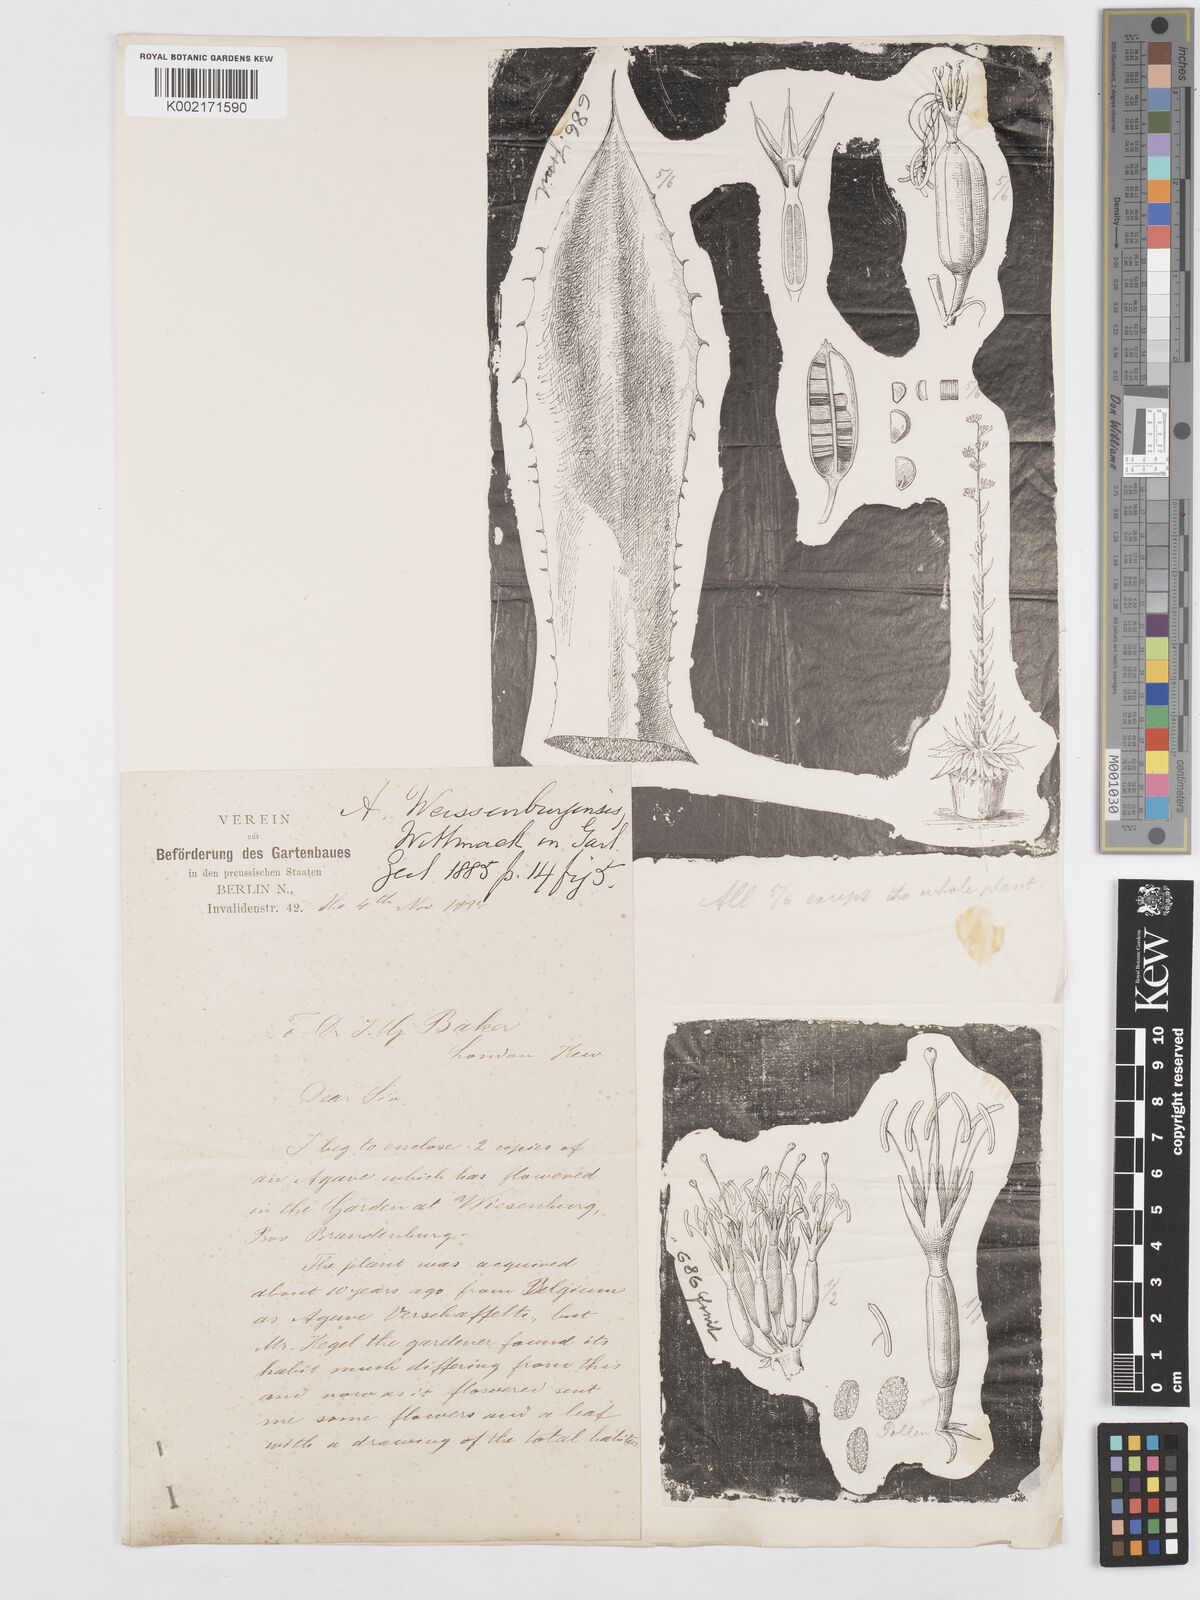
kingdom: Plantae
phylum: Tracheophyta
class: Liliopsida
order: Asparagales
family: Asparagaceae
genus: Agave
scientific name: Agave
